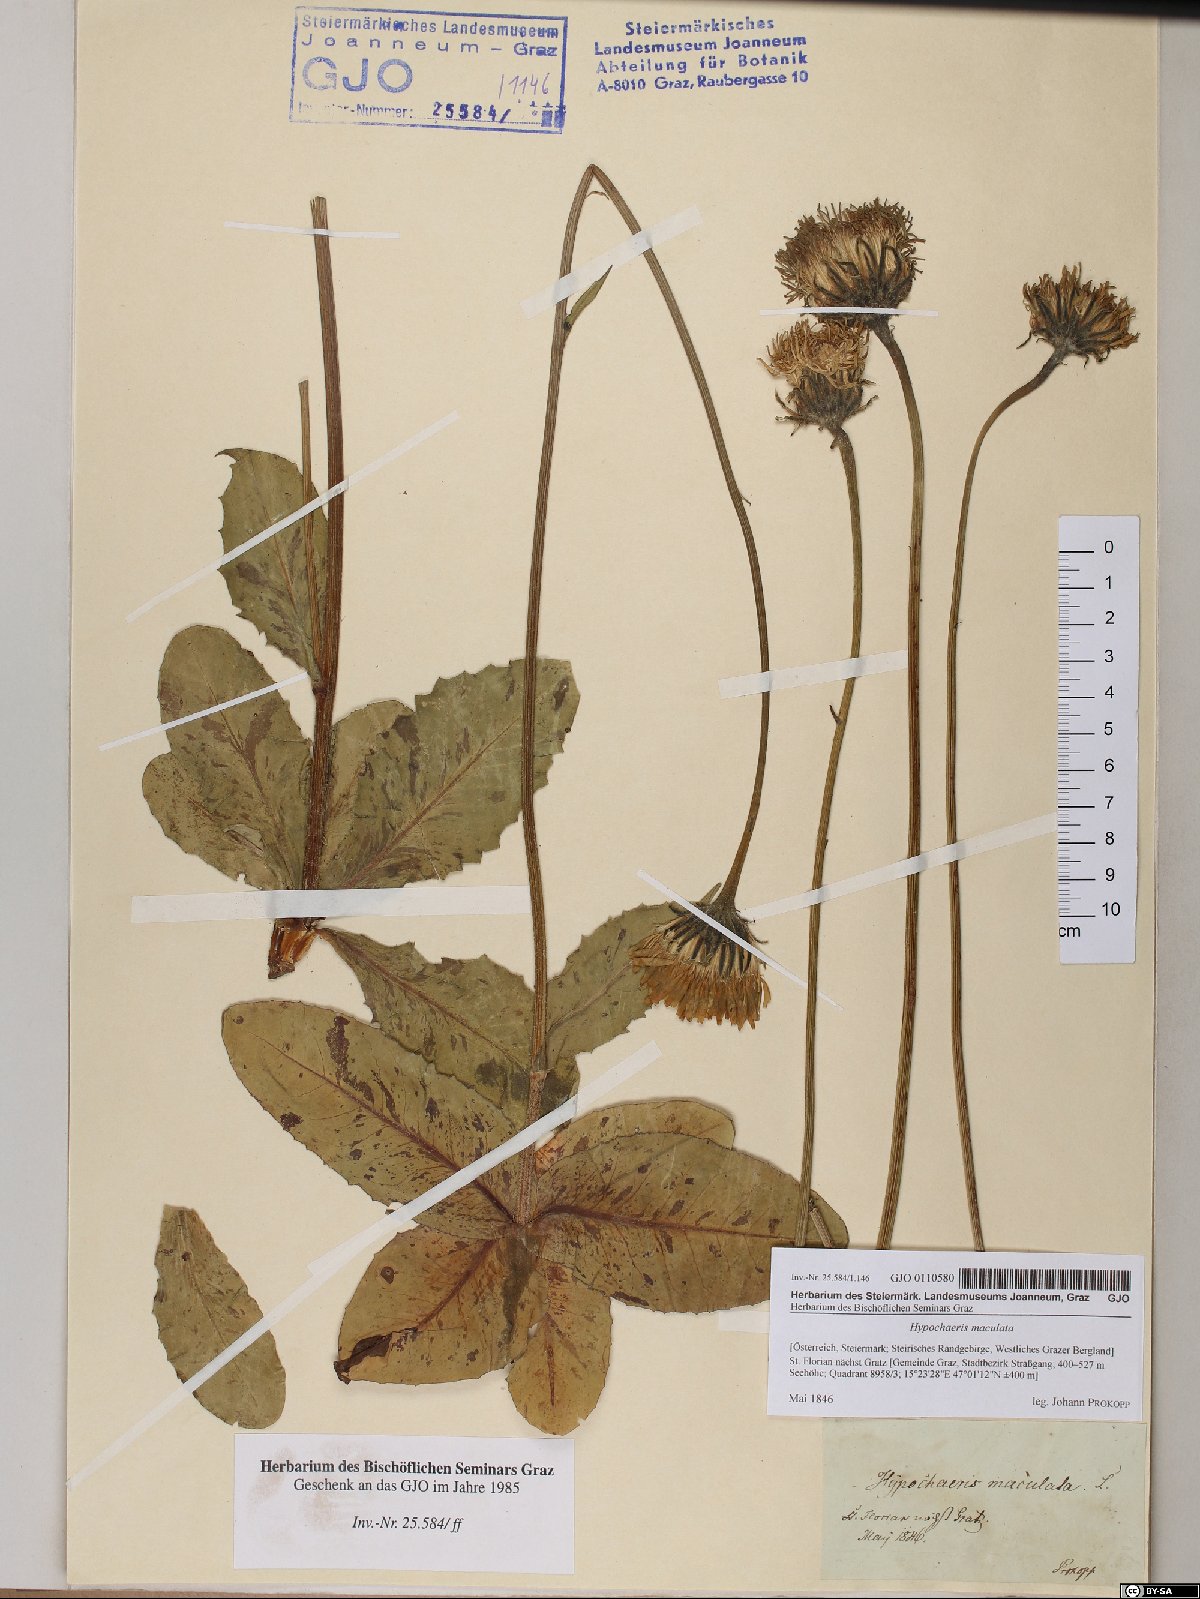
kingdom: Plantae
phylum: Tracheophyta
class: Magnoliopsida
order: Asterales
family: Asteraceae
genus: Trommsdorffia
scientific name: Trommsdorffia maculata
